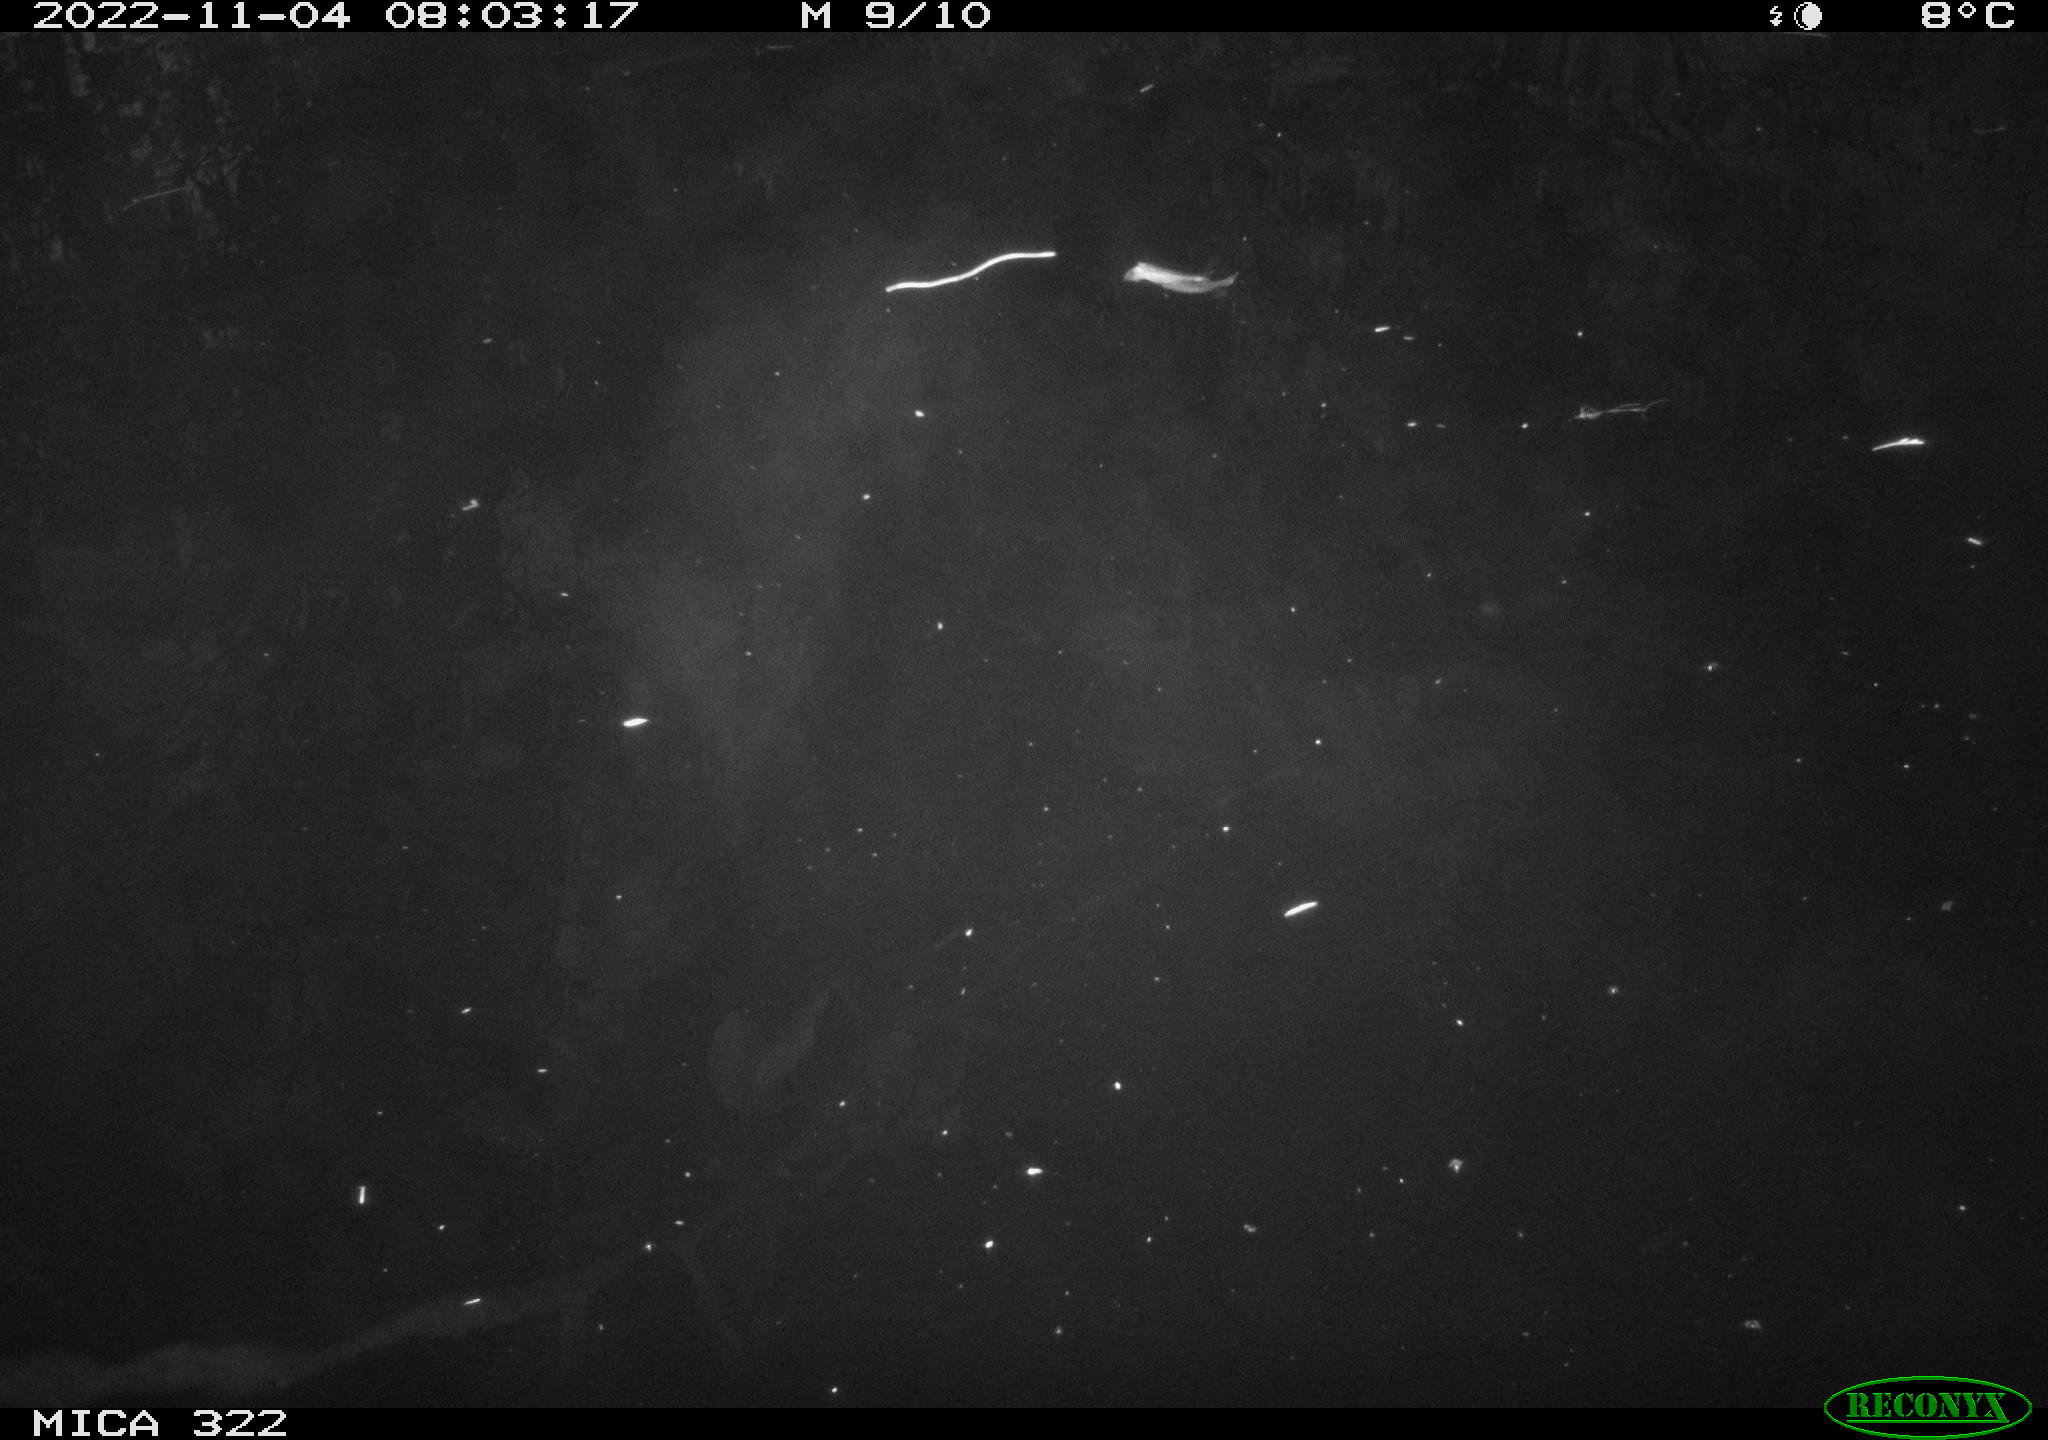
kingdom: Animalia
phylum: Chordata
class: Aves
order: Anseriformes
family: Anatidae
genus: Anas
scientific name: Anas
